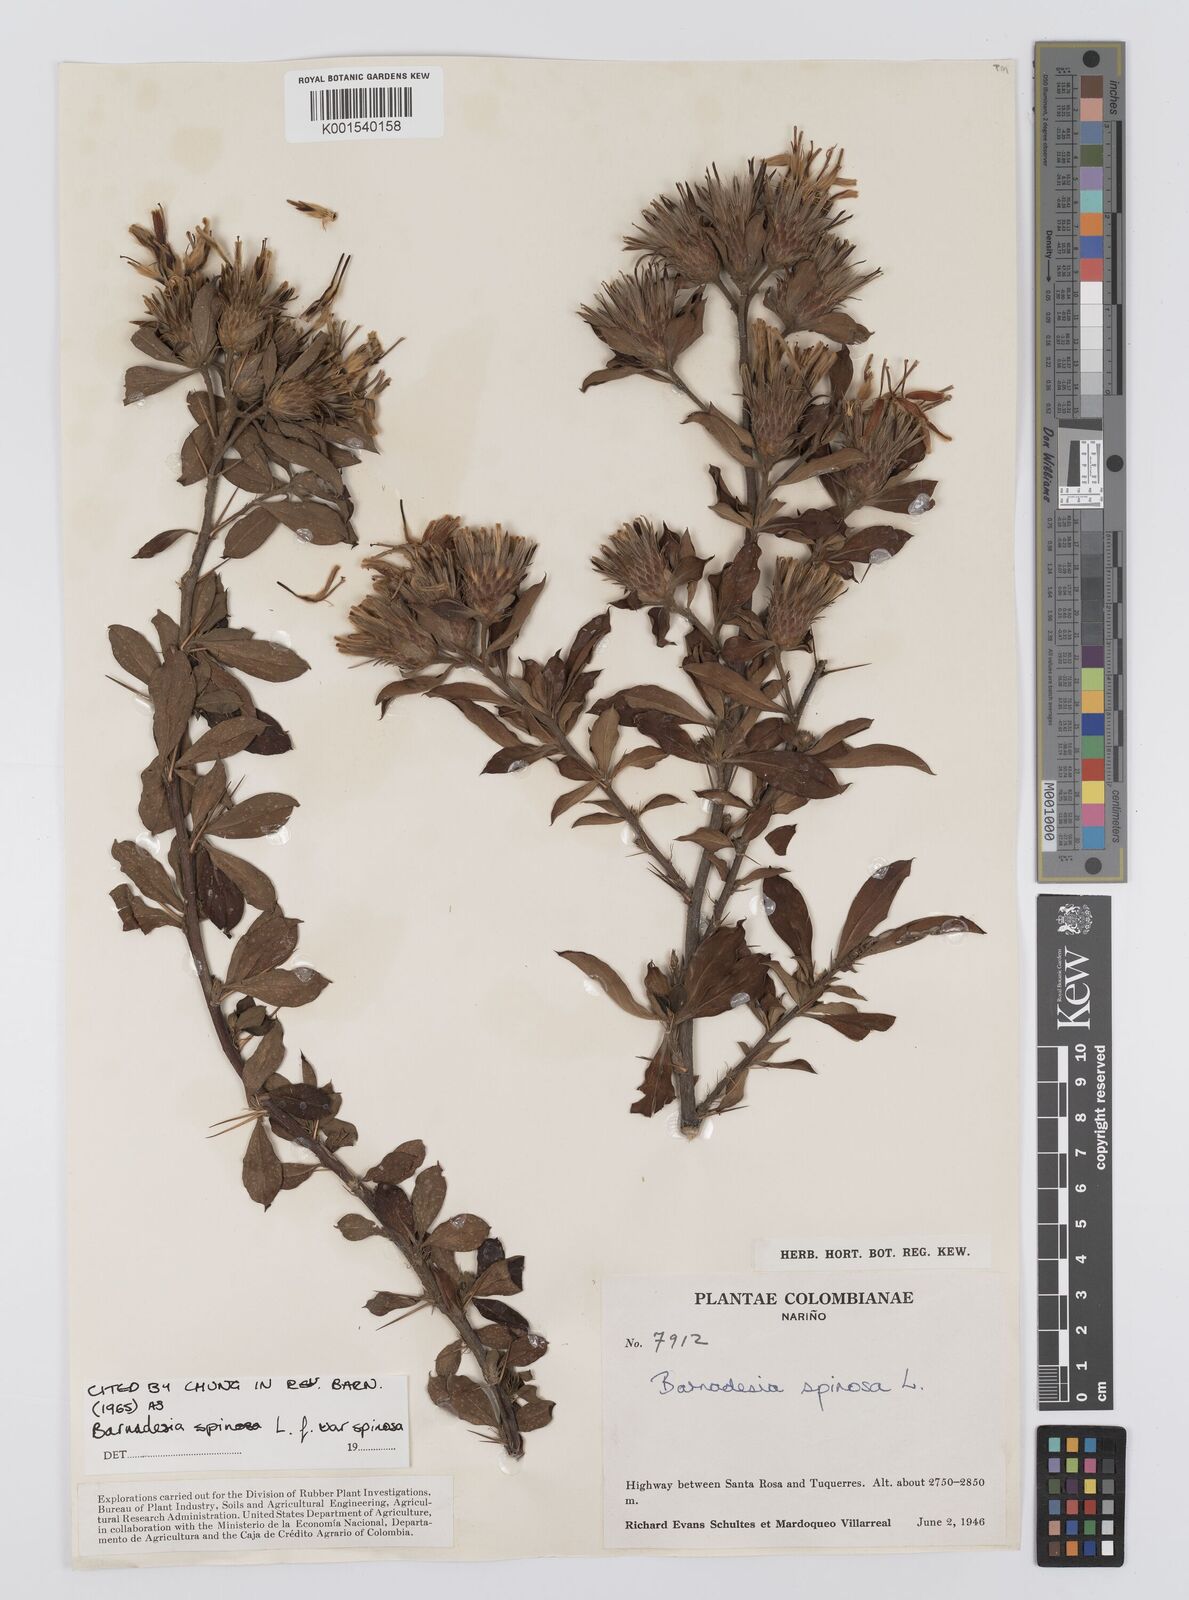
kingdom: Plantae
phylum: Tracheophyta
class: Magnoliopsida
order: Asterales
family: Asteraceae
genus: Barnadesia
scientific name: Barnadesia spinosa
